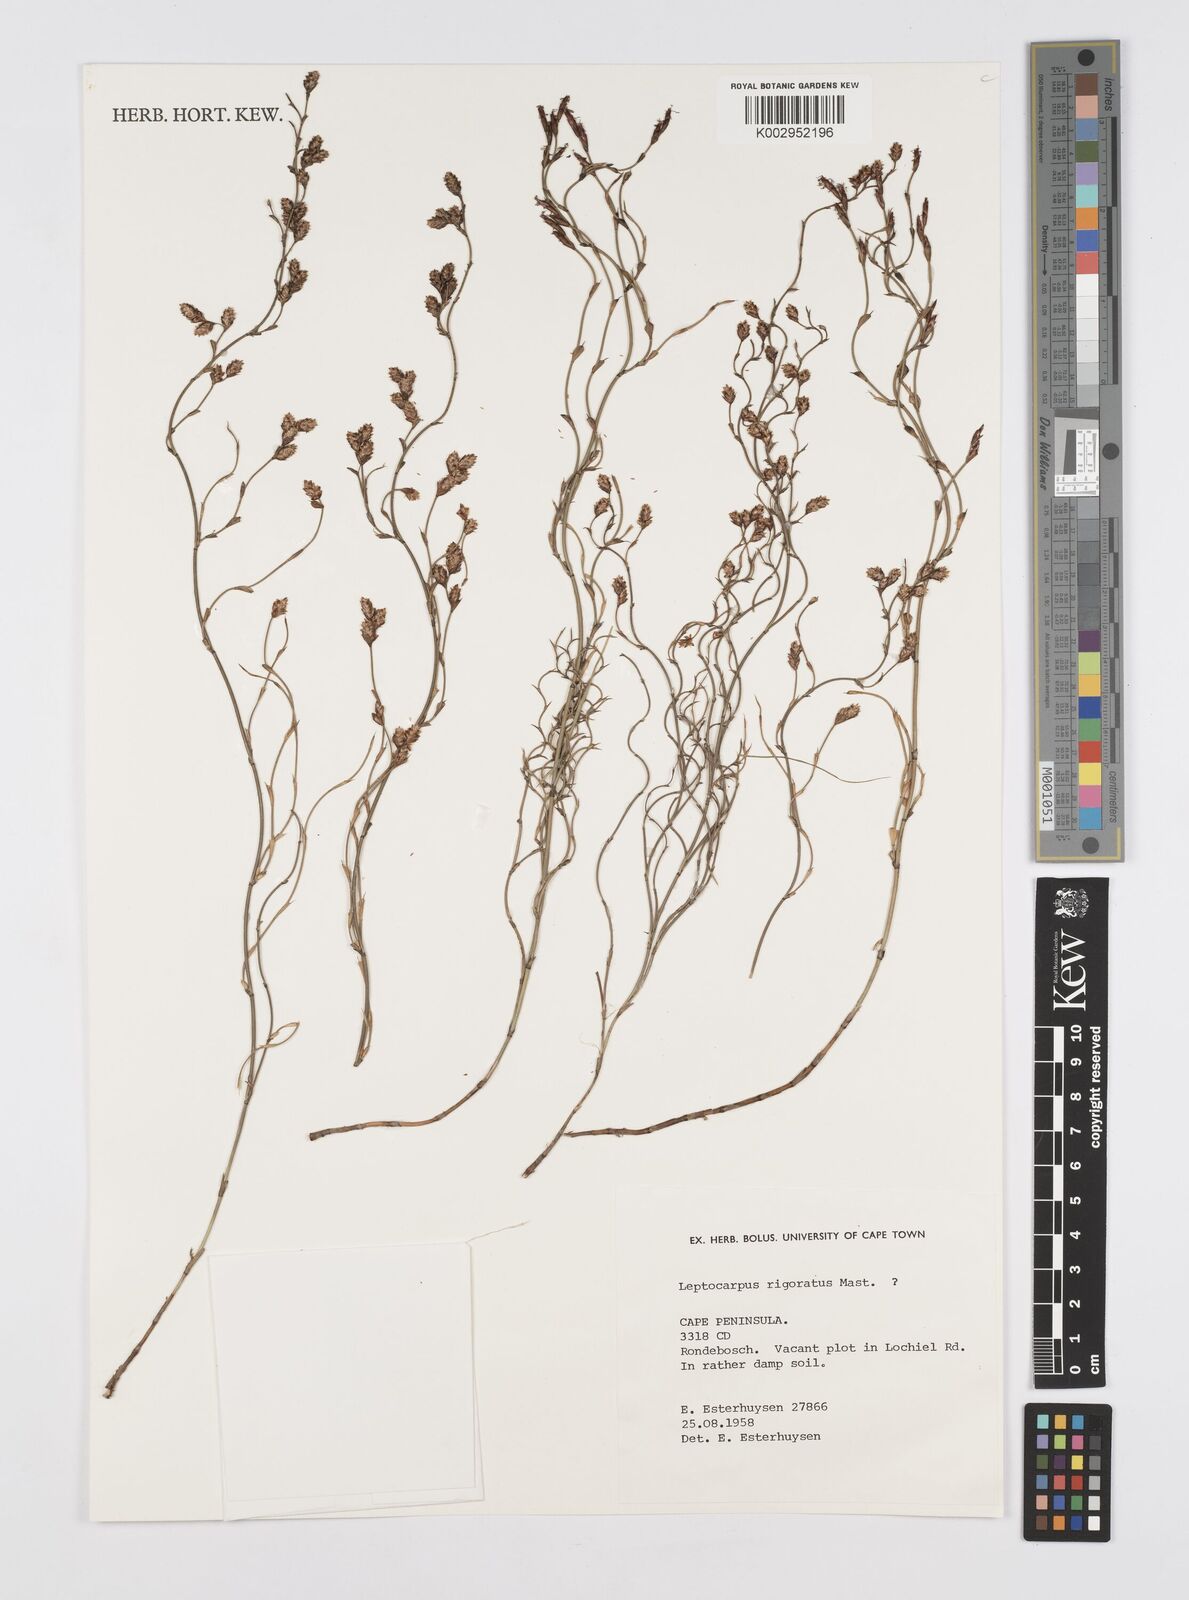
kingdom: Plantae
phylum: Tracheophyta
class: Liliopsida
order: Poales
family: Restionaceae
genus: Restio
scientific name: Restio rigoratus
